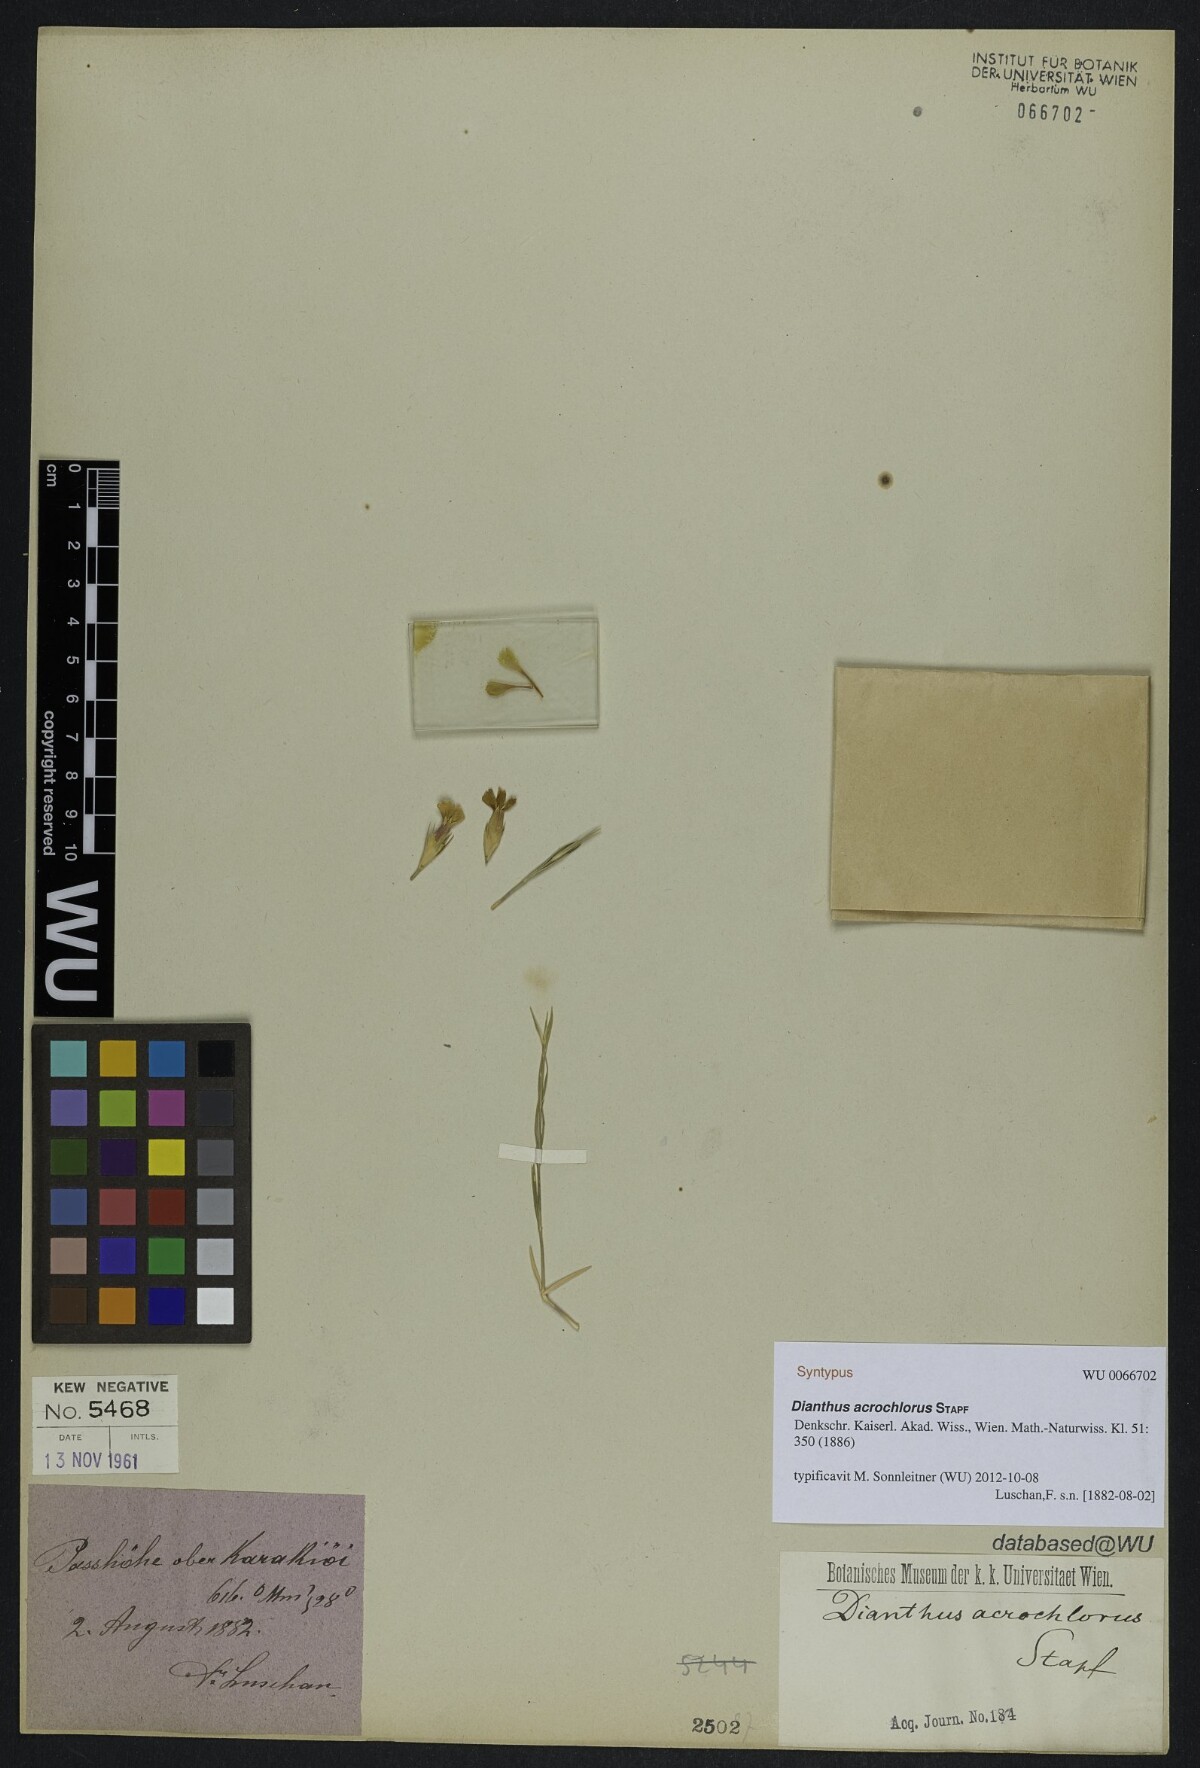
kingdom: Plantae
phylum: Tracheophyta
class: Magnoliopsida
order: Caryophyllales
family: Caryophyllaceae
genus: Dianthus
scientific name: Dianthus acrochlorus
